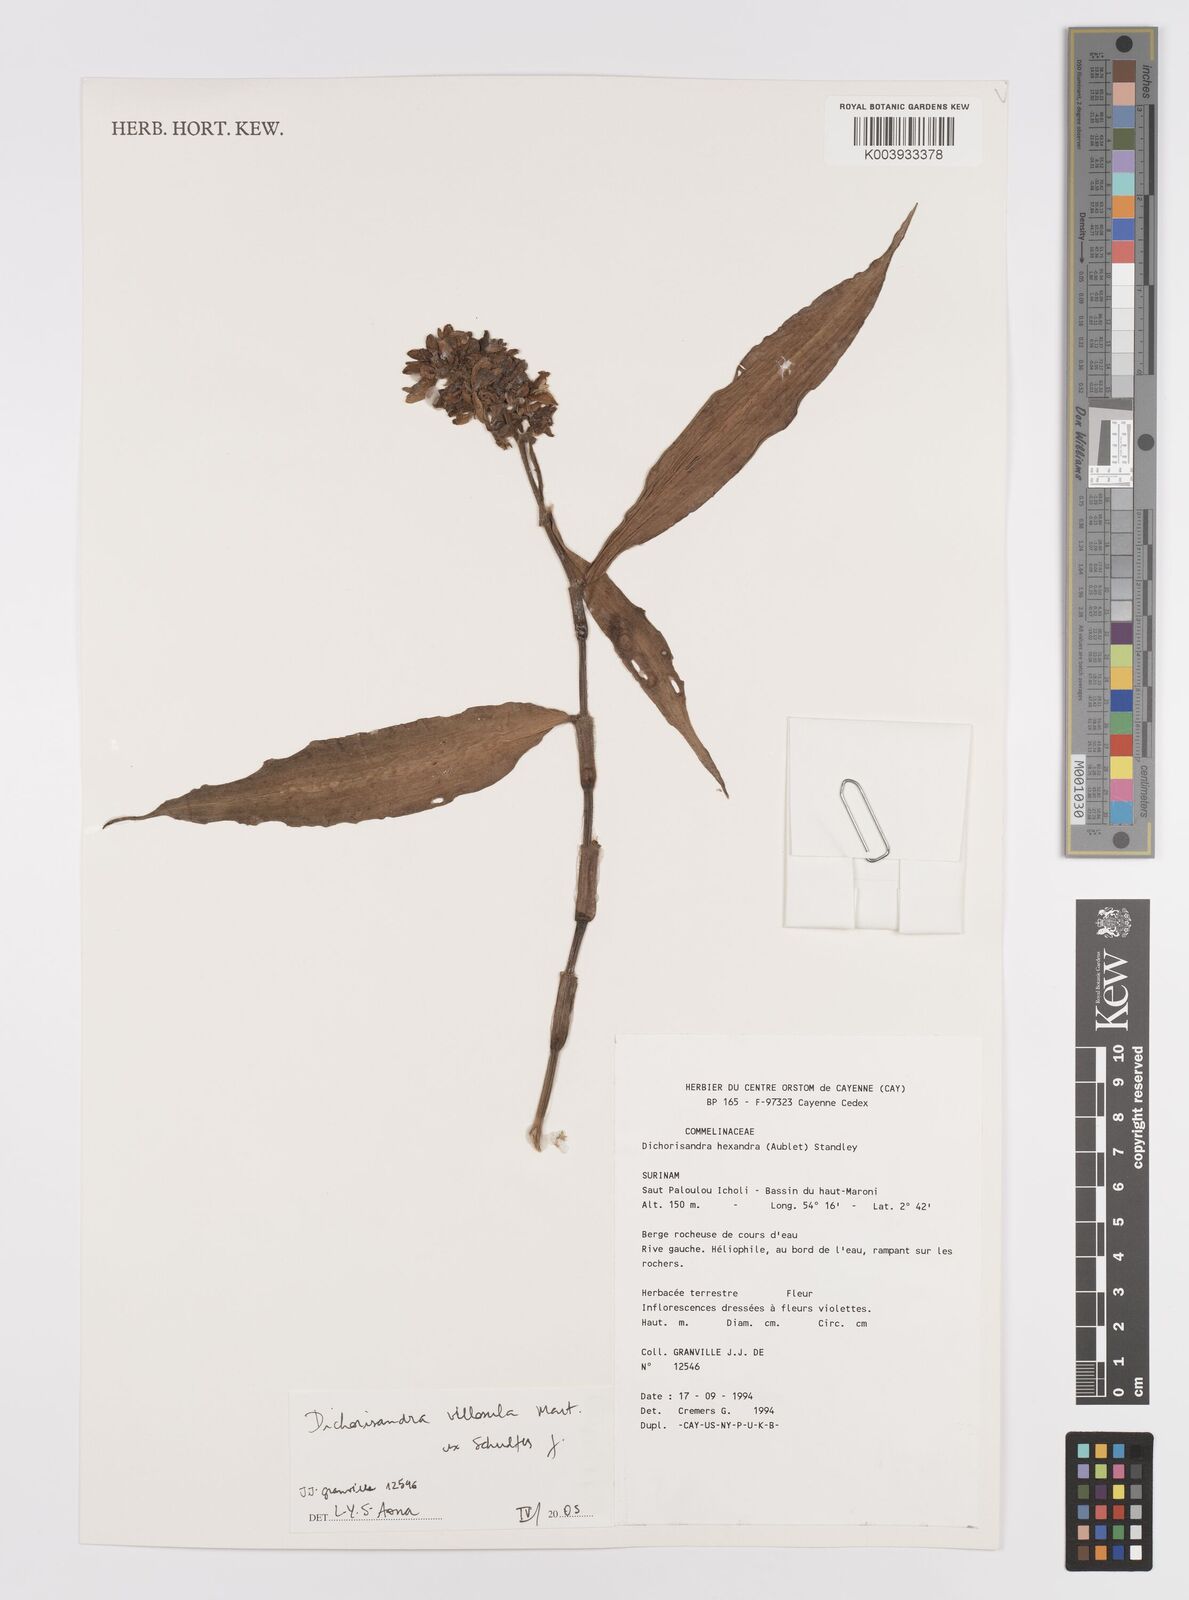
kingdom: Plantae
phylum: Tracheophyta
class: Liliopsida
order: Commelinales
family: Commelinaceae
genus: Dichorisandra
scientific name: Dichorisandra villosula
